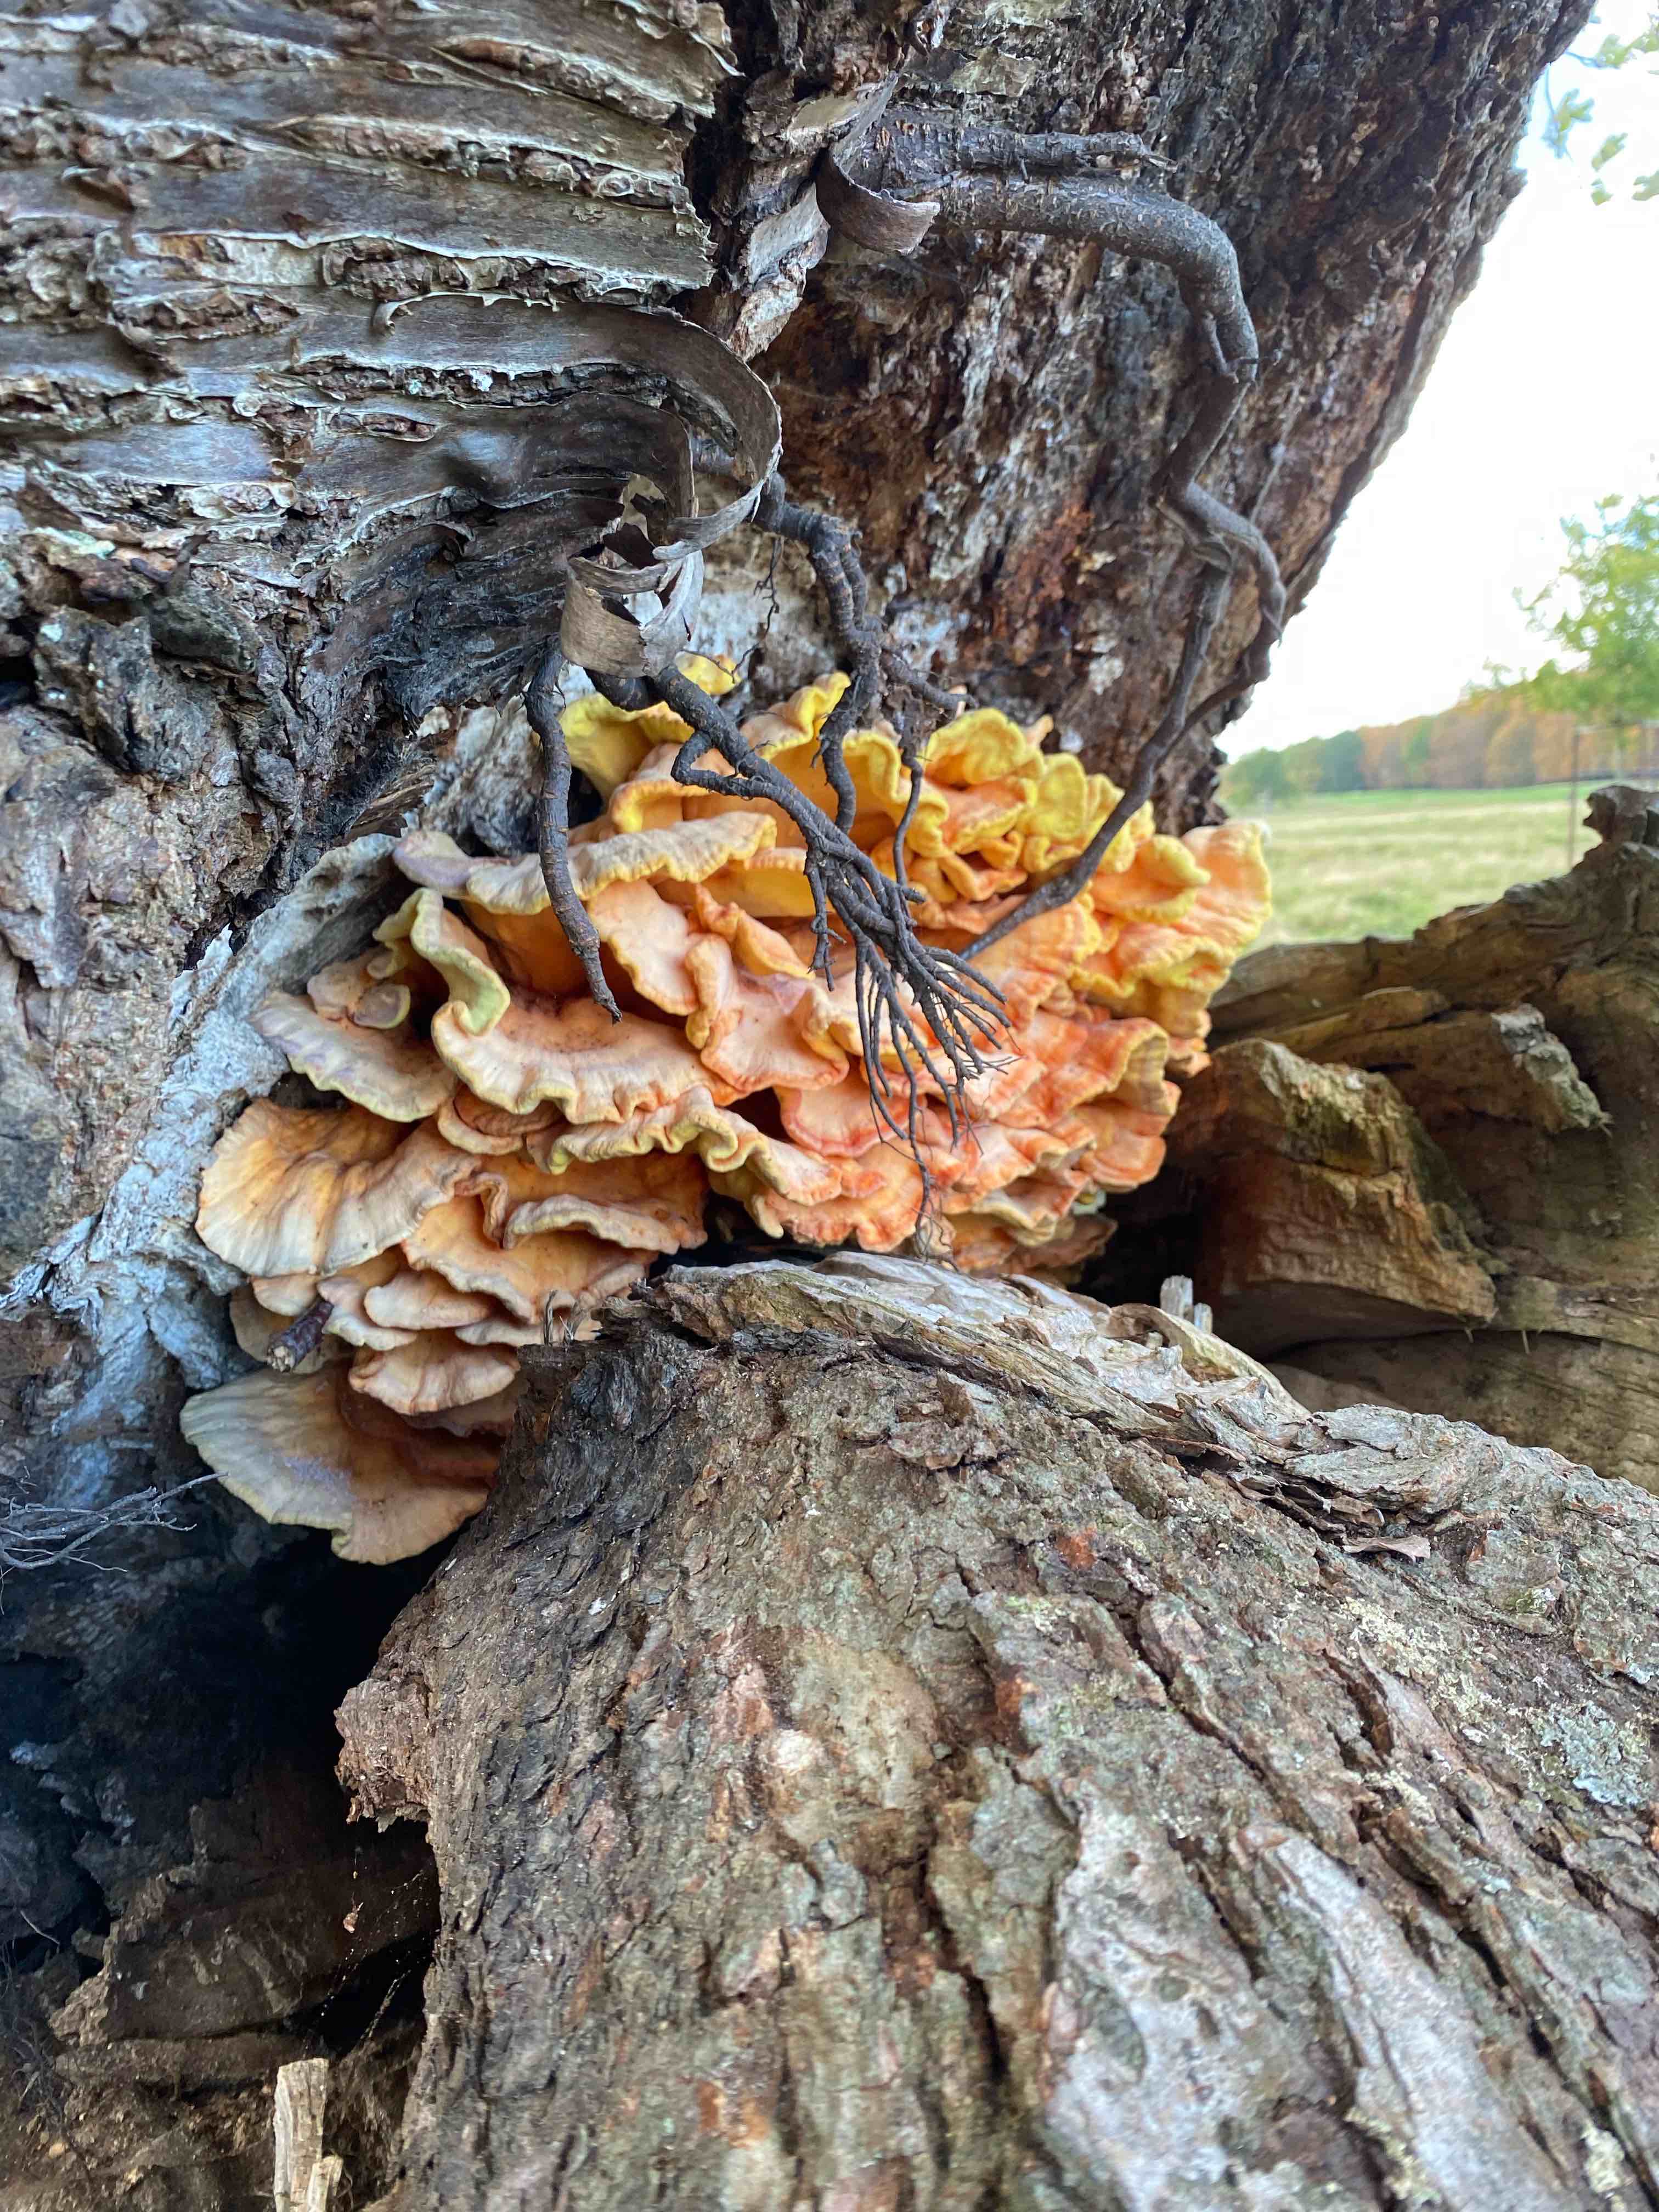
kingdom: Fungi
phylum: Basidiomycota
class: Agaricomycetes
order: Polyporales
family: Laetiporaceae
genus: Laetiporus
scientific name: Laetiporus sulphureus
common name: svovlporesvamp
